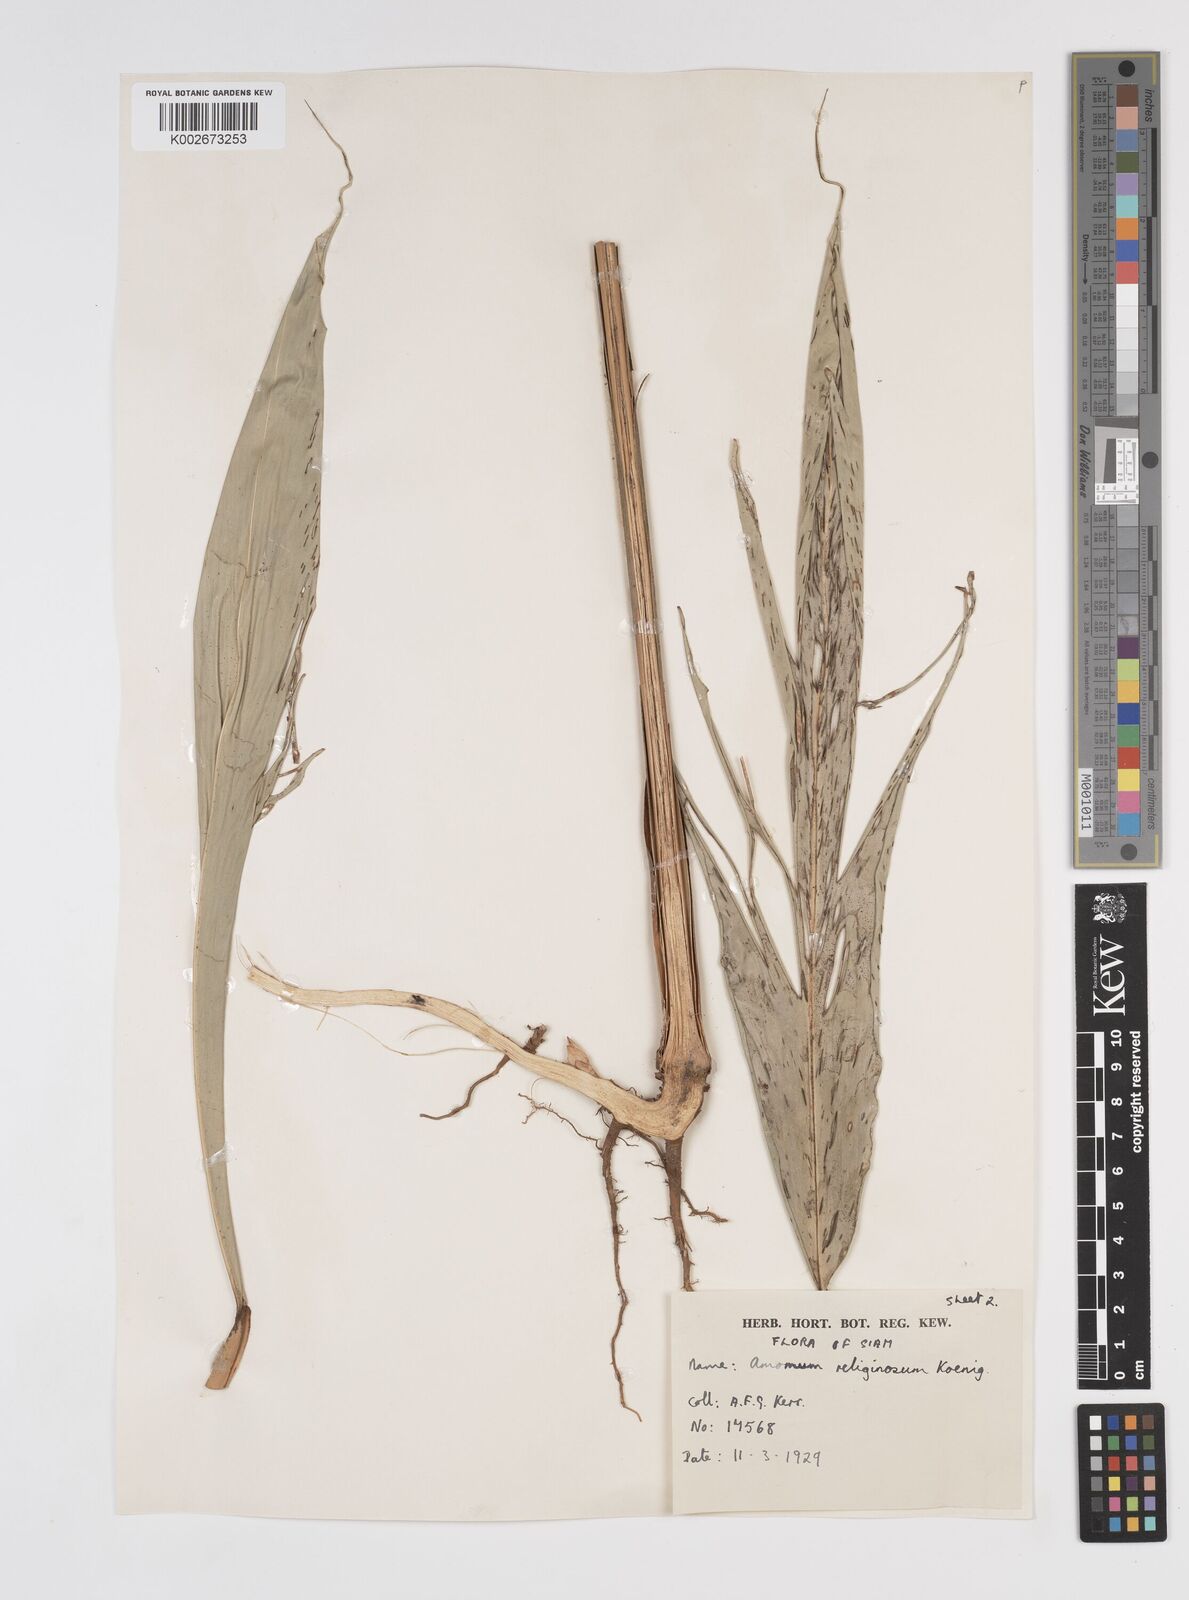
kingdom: Plantae
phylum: Tracheophyta
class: Liliopsida
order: Zingiberales
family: Zingiberaceae
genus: Wurfbainia
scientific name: Wurfbainia uliginosa
